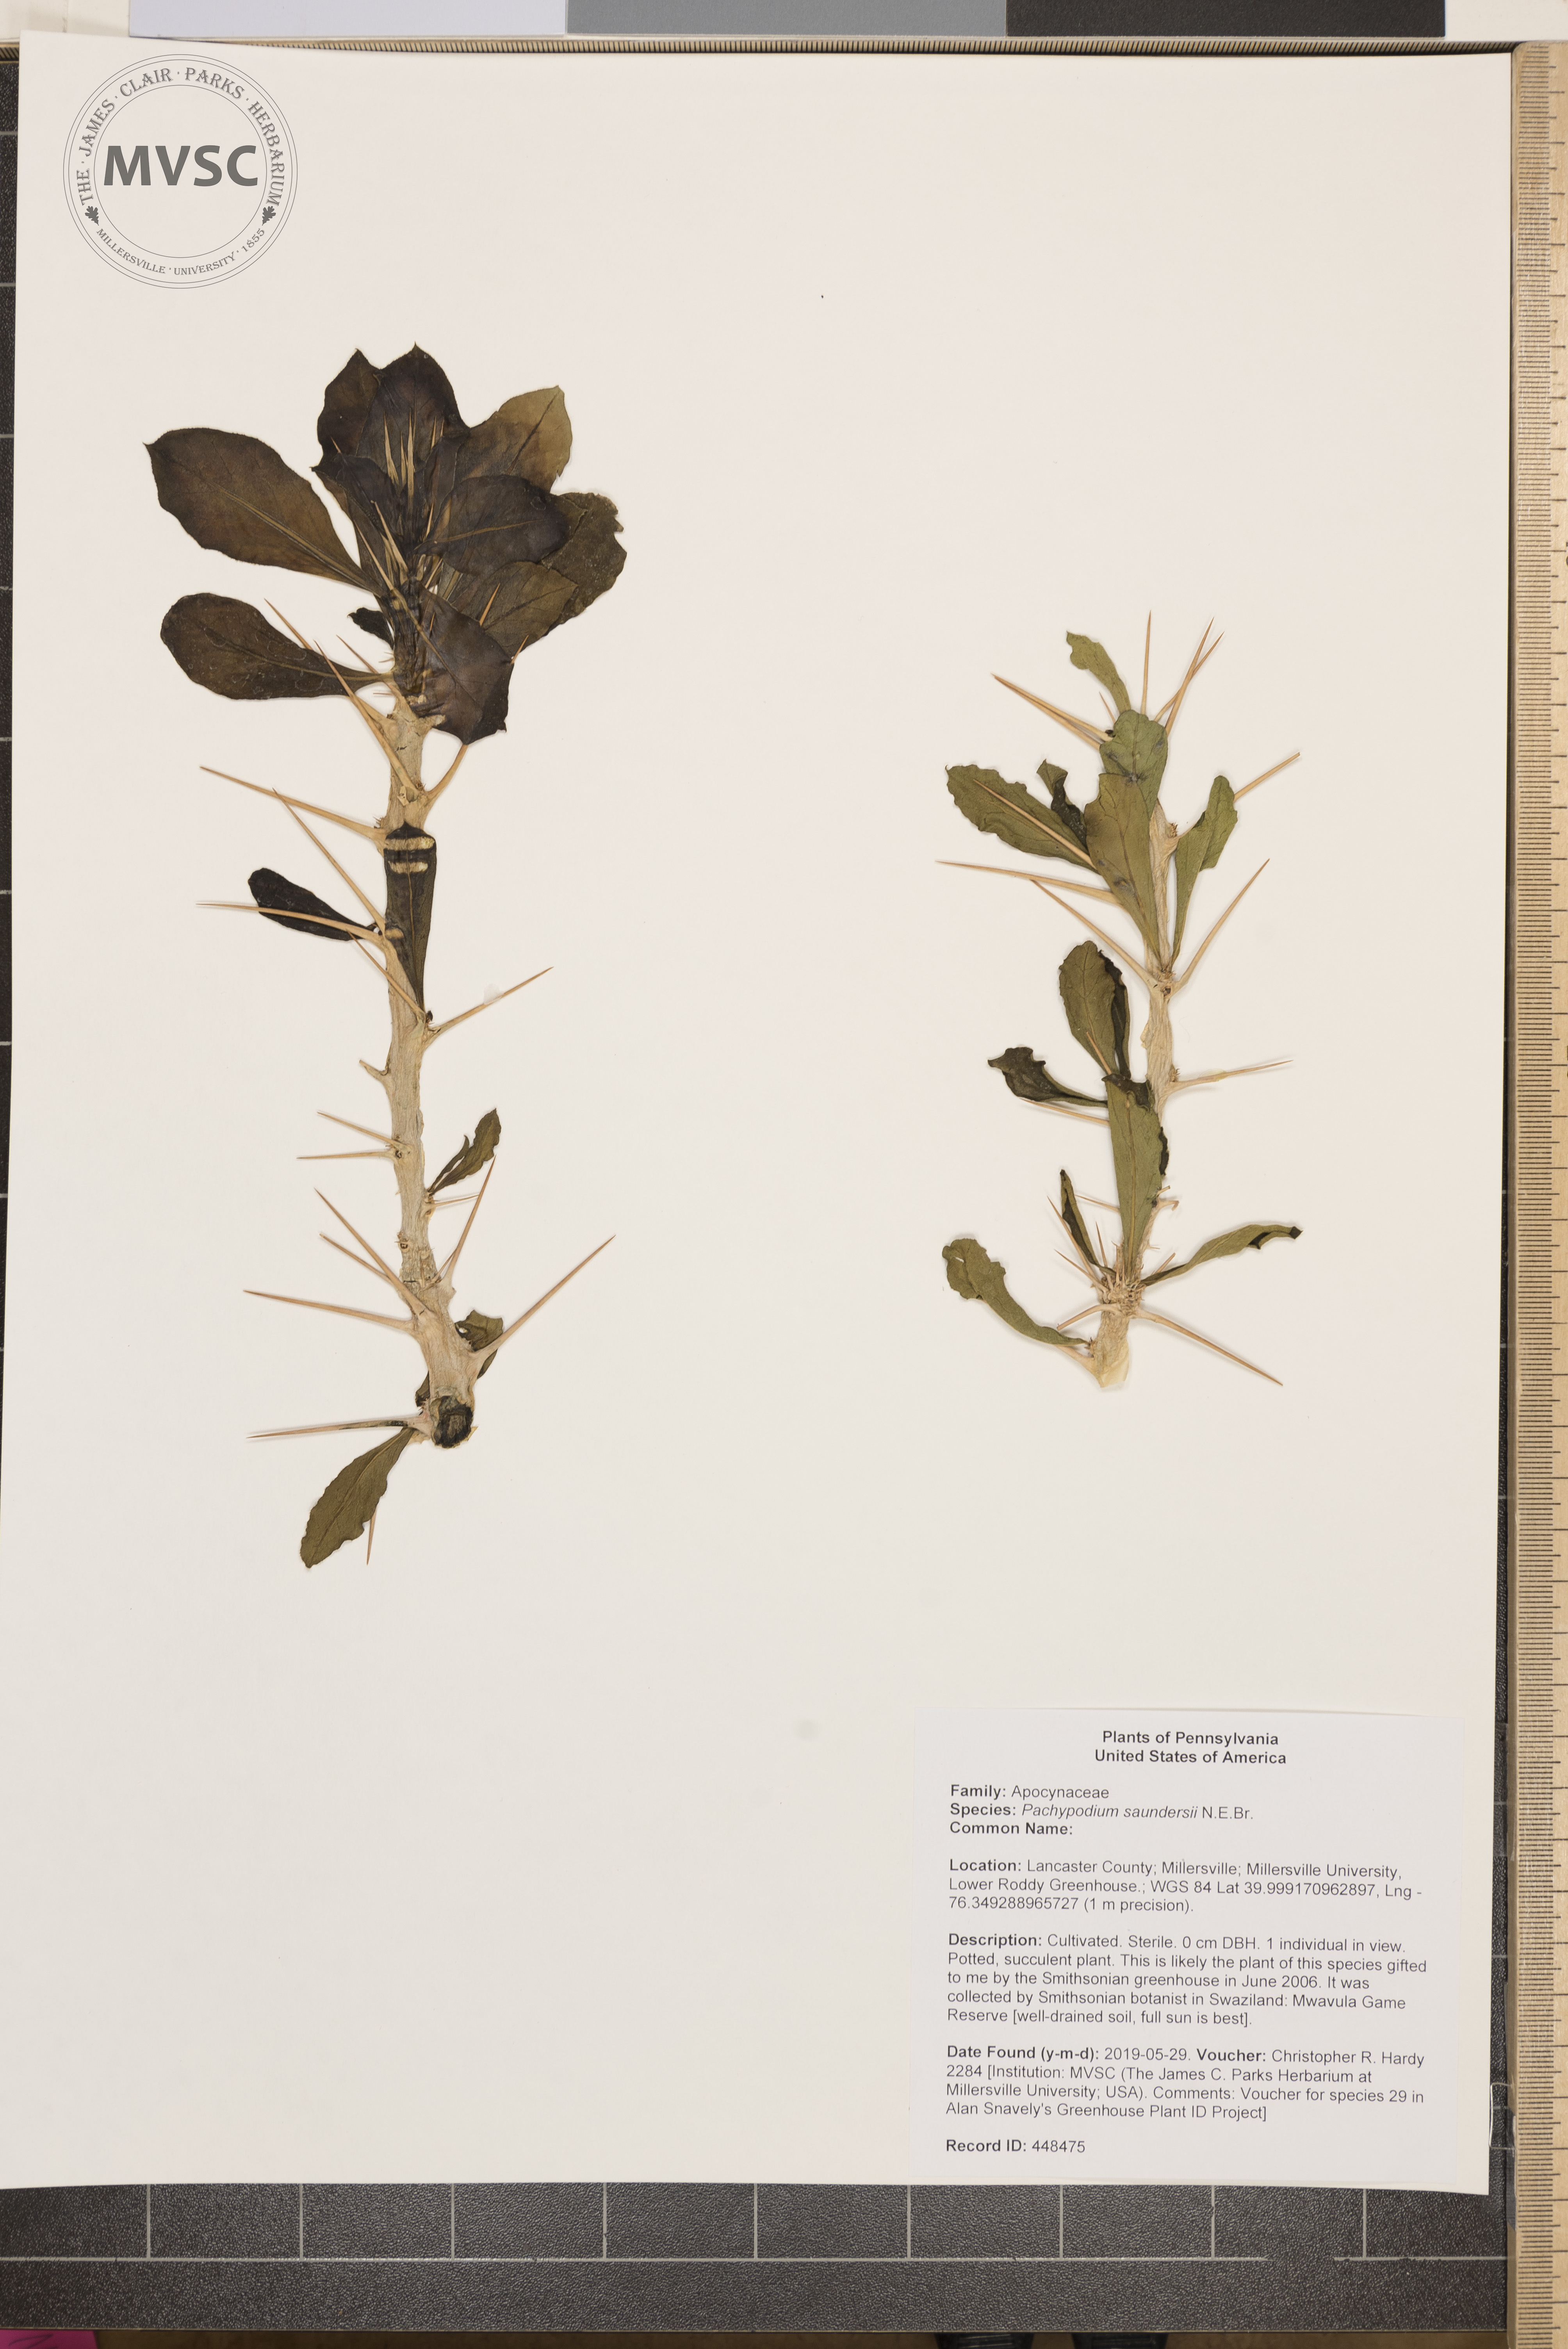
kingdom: Plantae
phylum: Tracheophyta
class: Magnoliopsida
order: Gentianales
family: Apocynaceae
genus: Pachypodium
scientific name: Pachypodium saundersii
